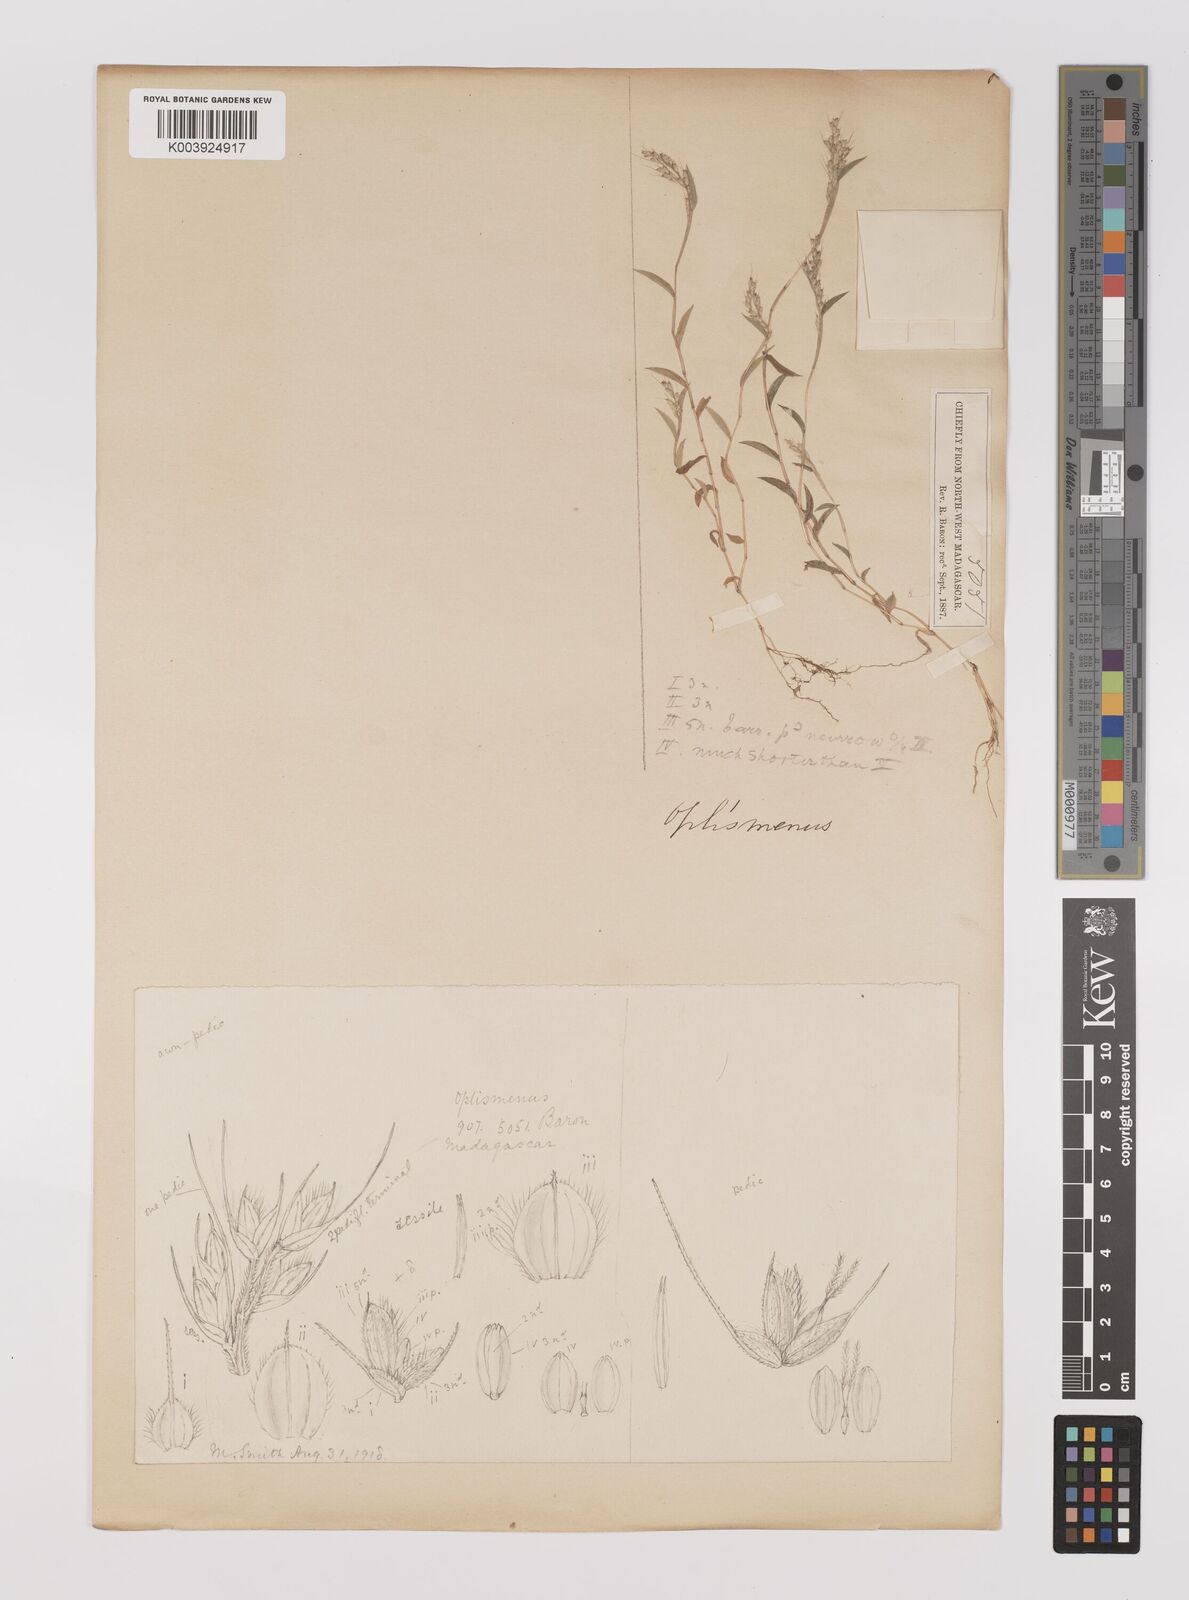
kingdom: Plantae
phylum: Tracheophyta
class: Liliopsida
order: Poales
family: Poaceae
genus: Oplismenus
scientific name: Oplismenus
